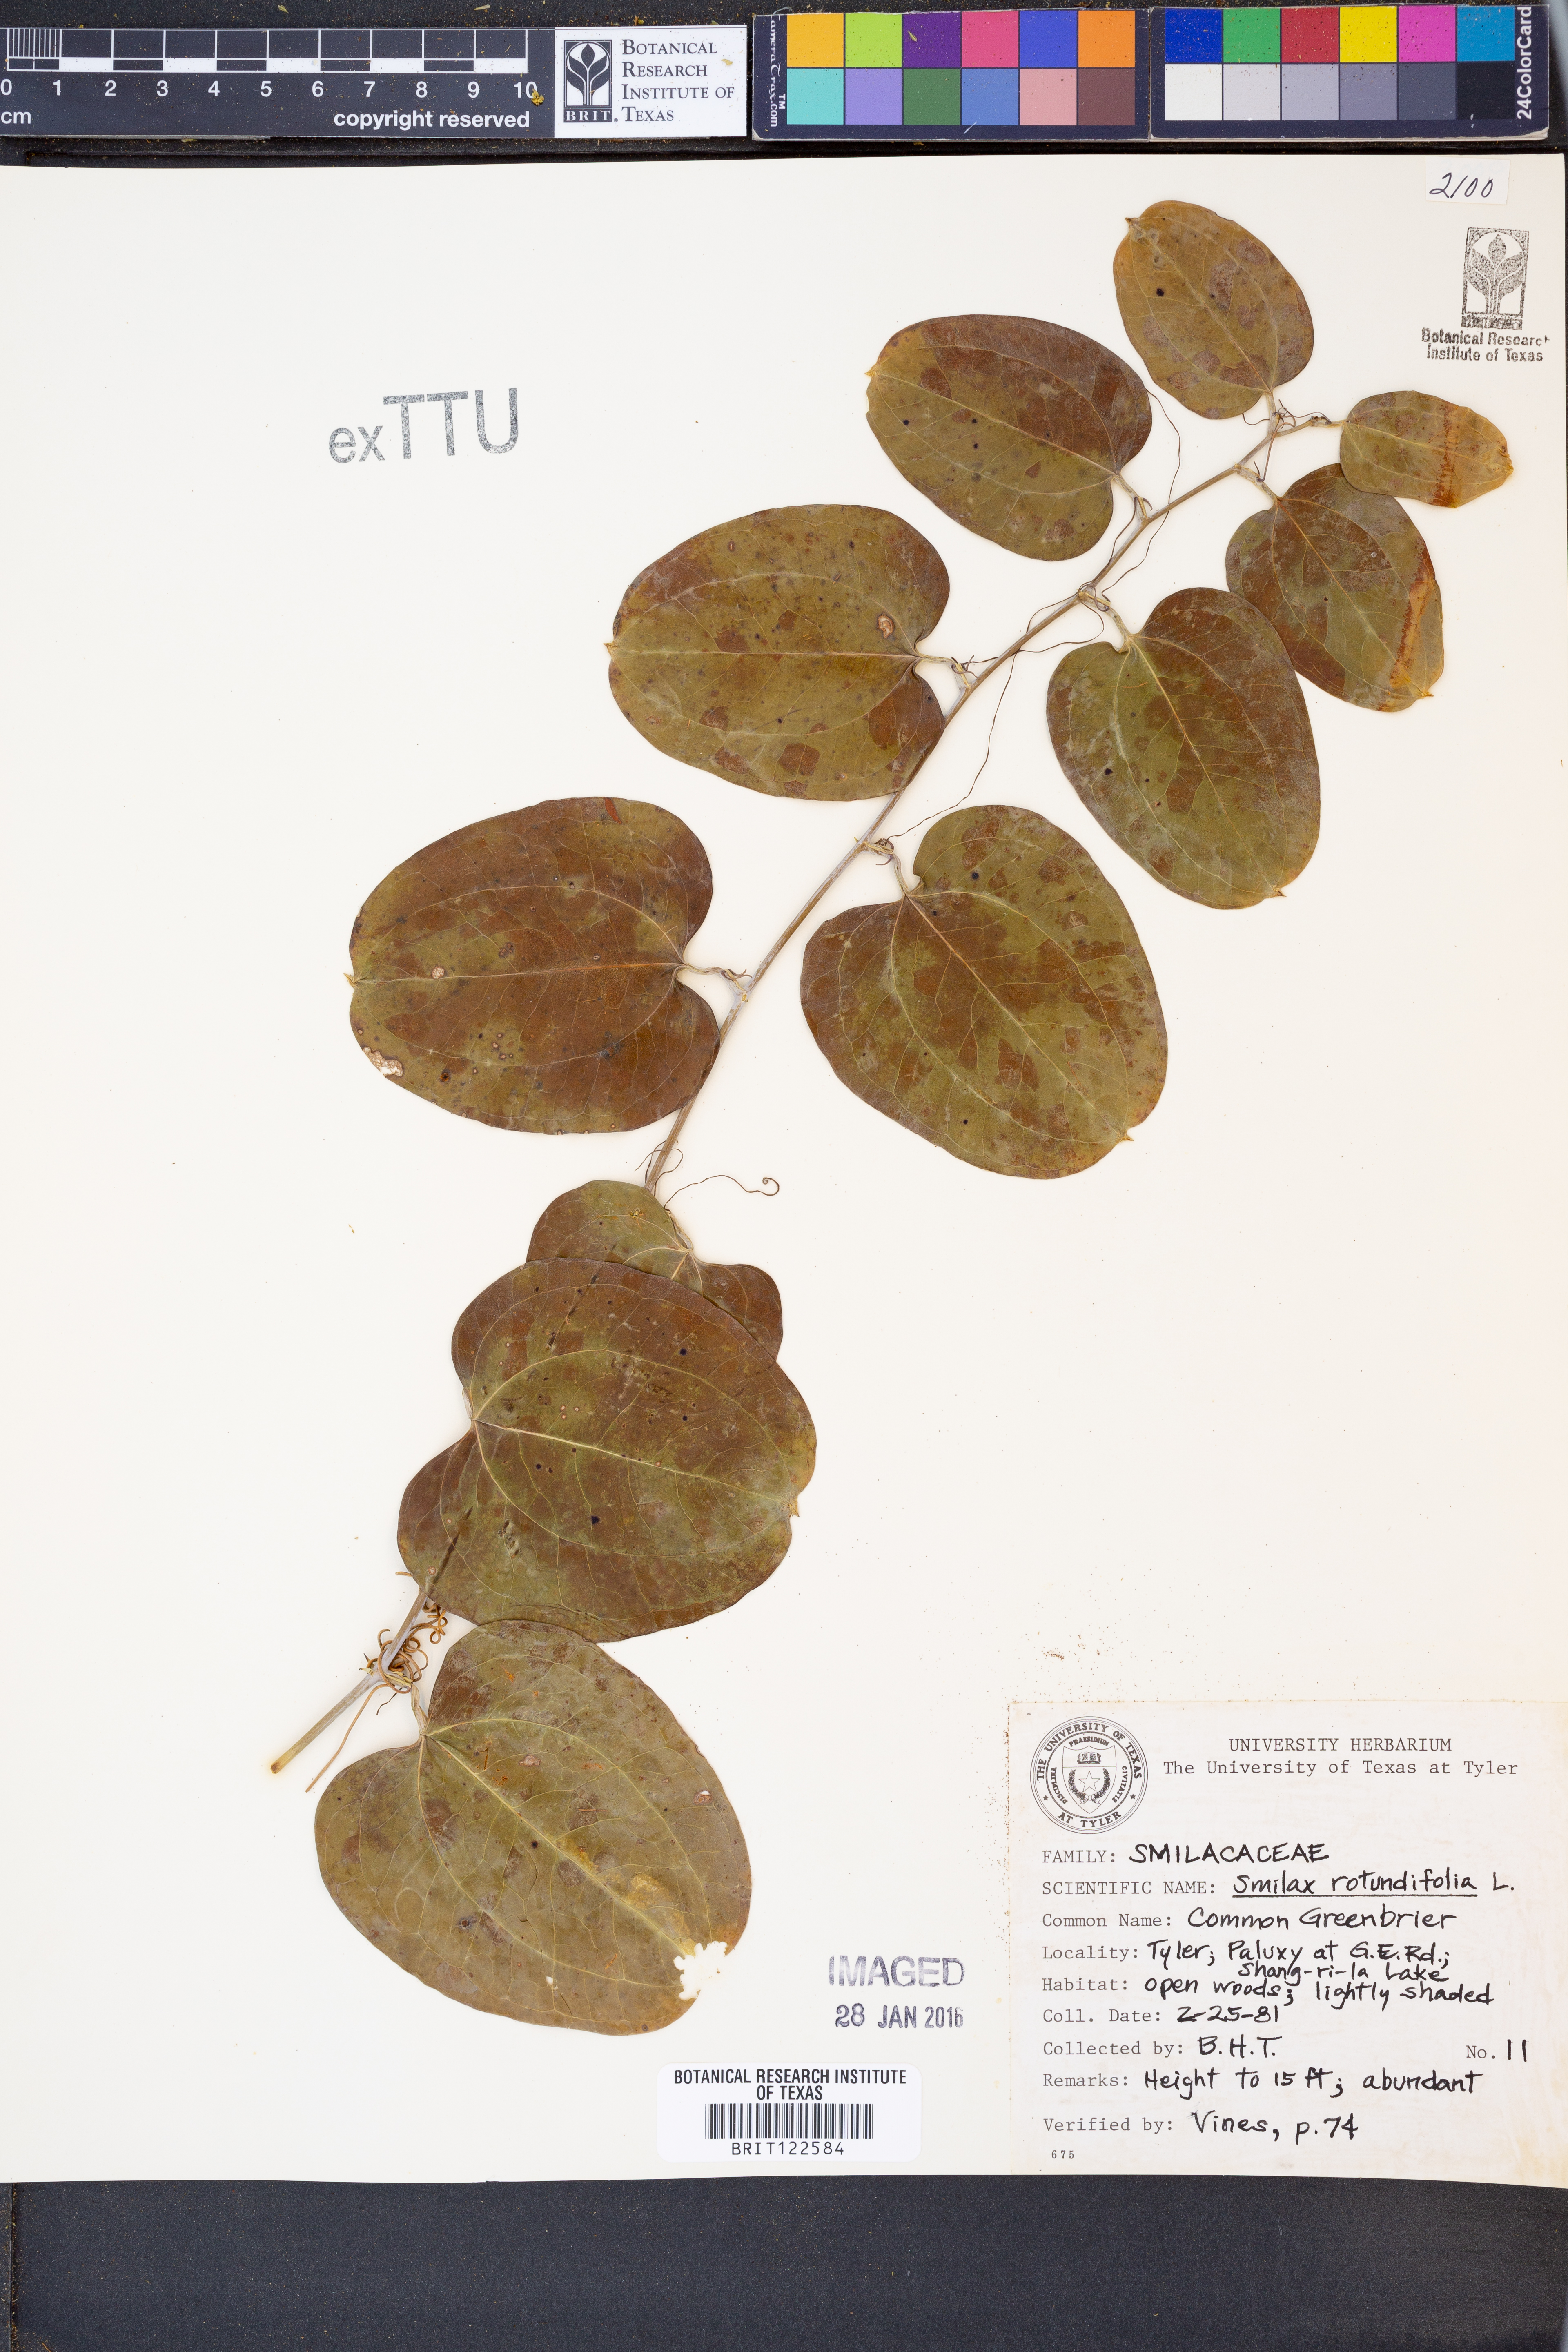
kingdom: Plantae
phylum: Tracheophyta
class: Liliopsida
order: Liliales
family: Smilacaceae
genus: Smilax
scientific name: Smilax rotundifolia
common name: Bullbriar
